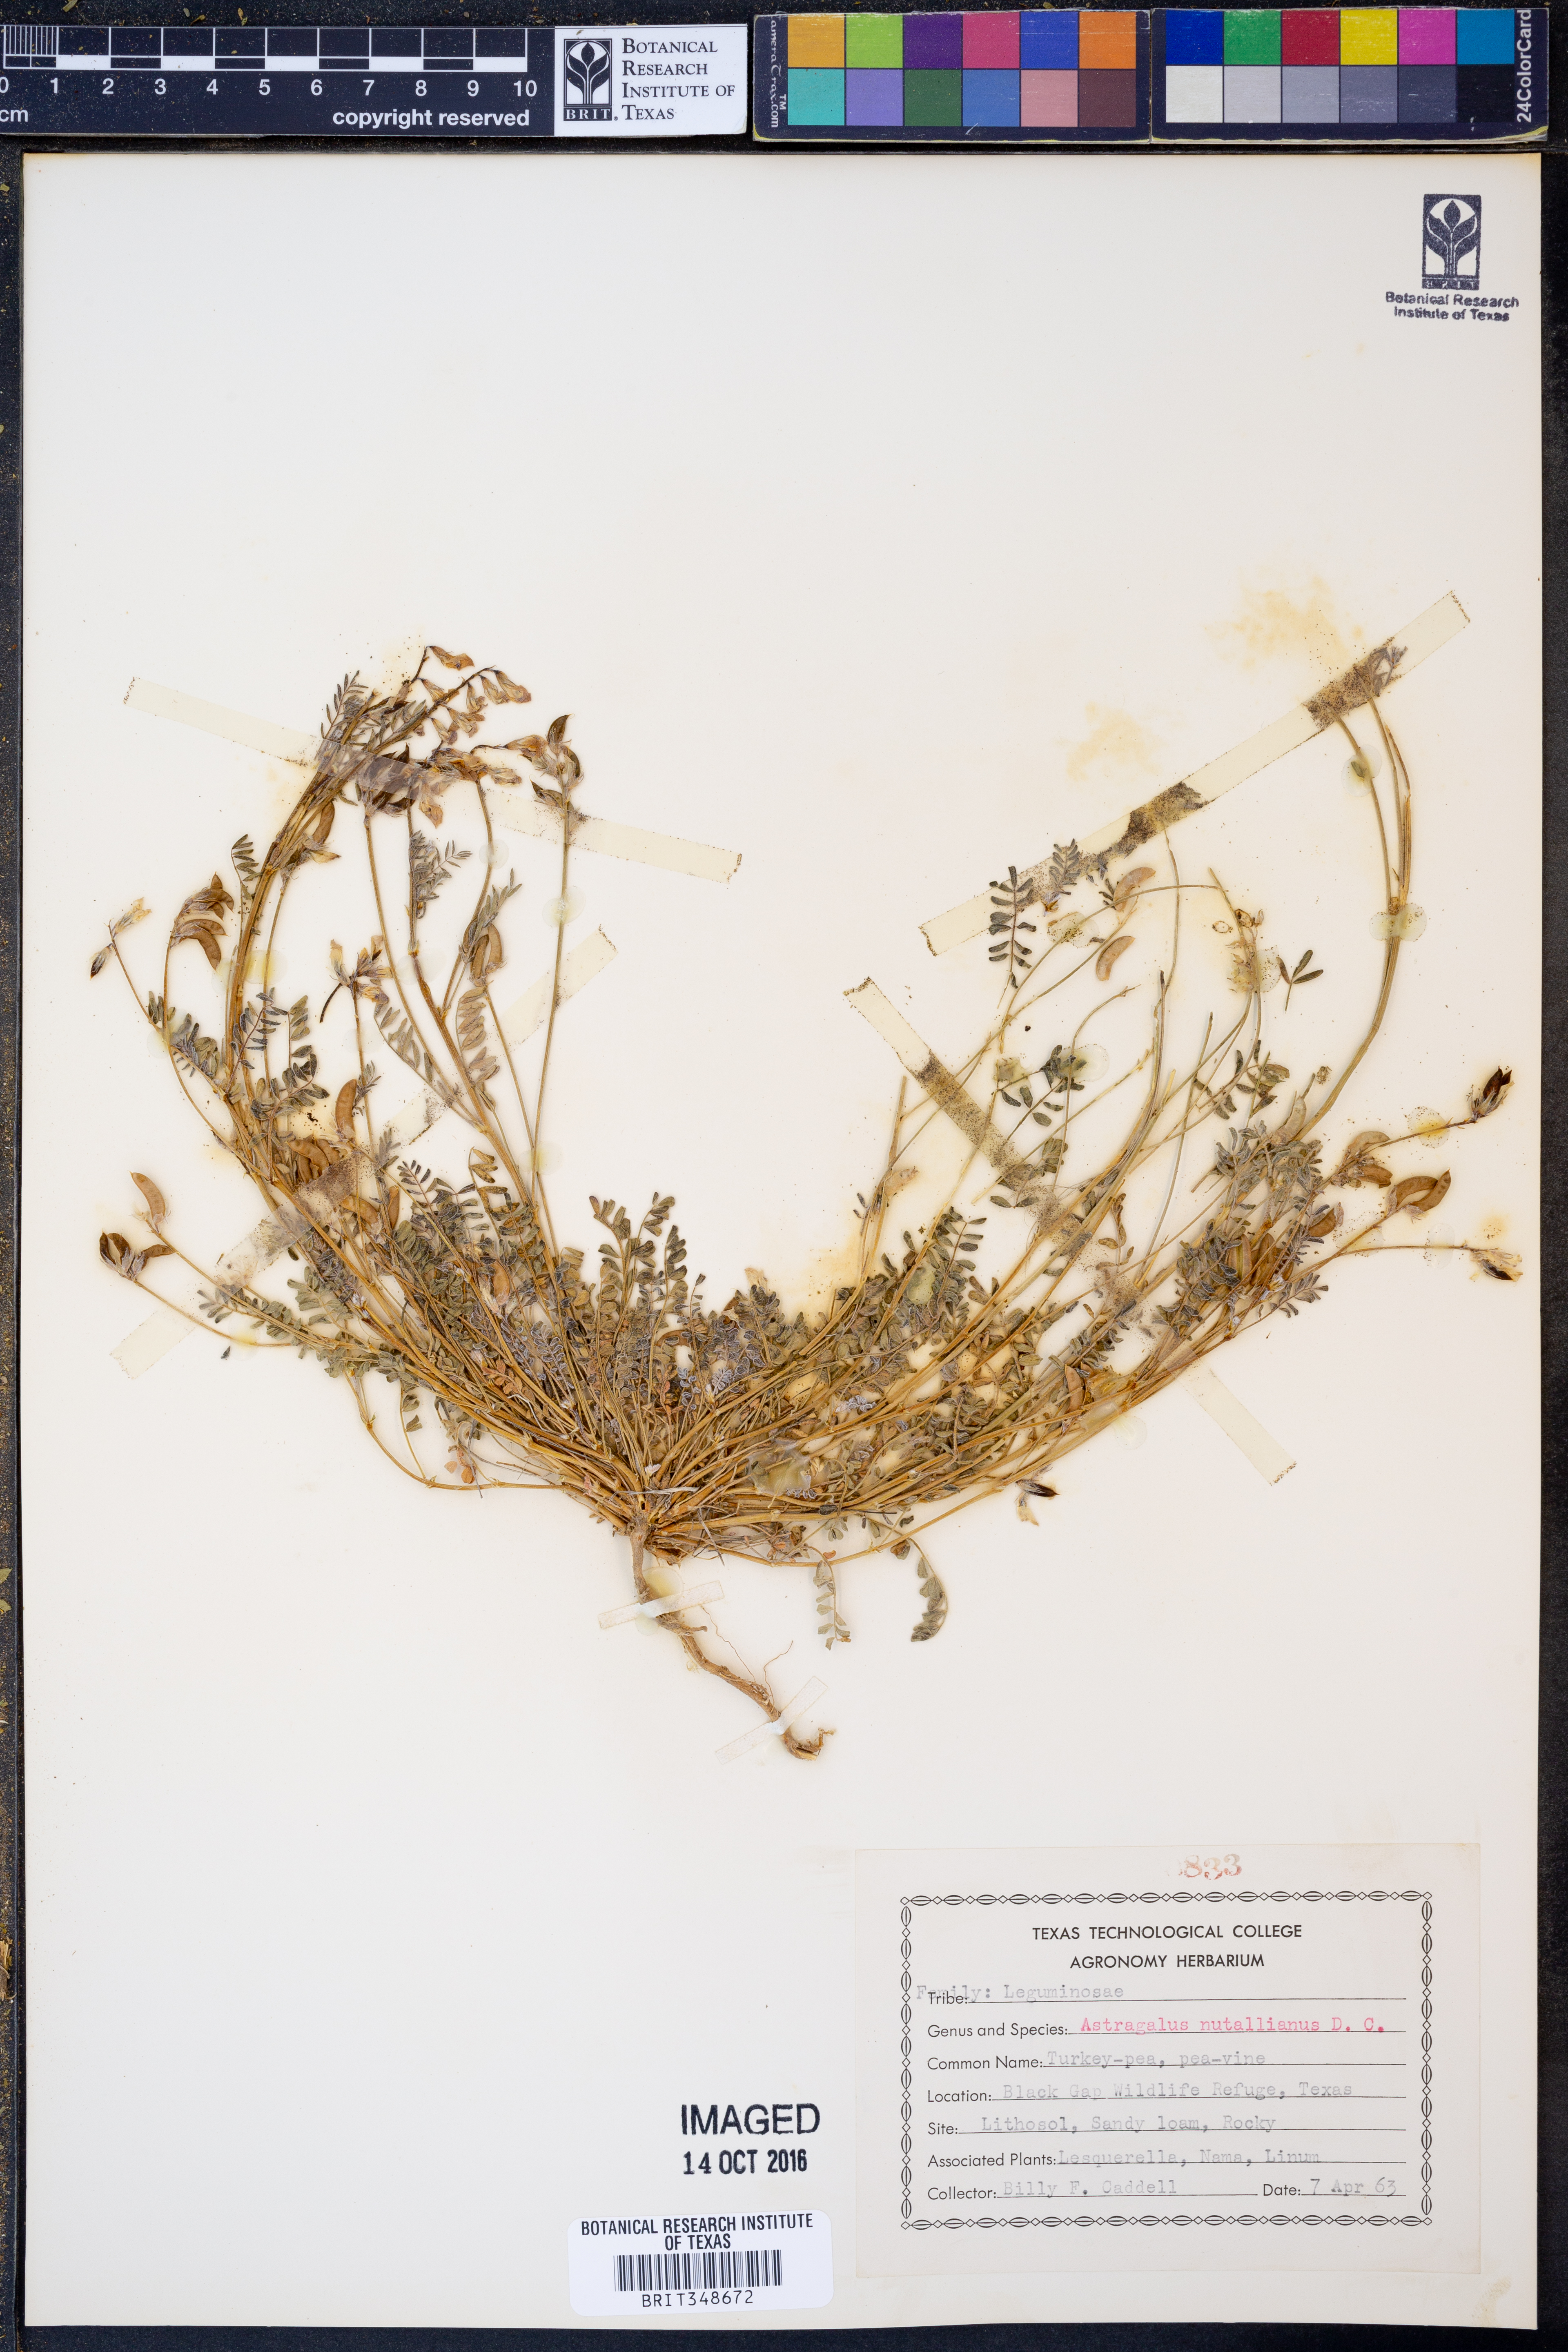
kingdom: Plantae
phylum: Tracheophyta
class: Magnoliopsida
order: Fabales
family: Fabaceae
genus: Astragalus
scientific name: Astragalus nuttallianus
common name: Smallflowered milkvetch
